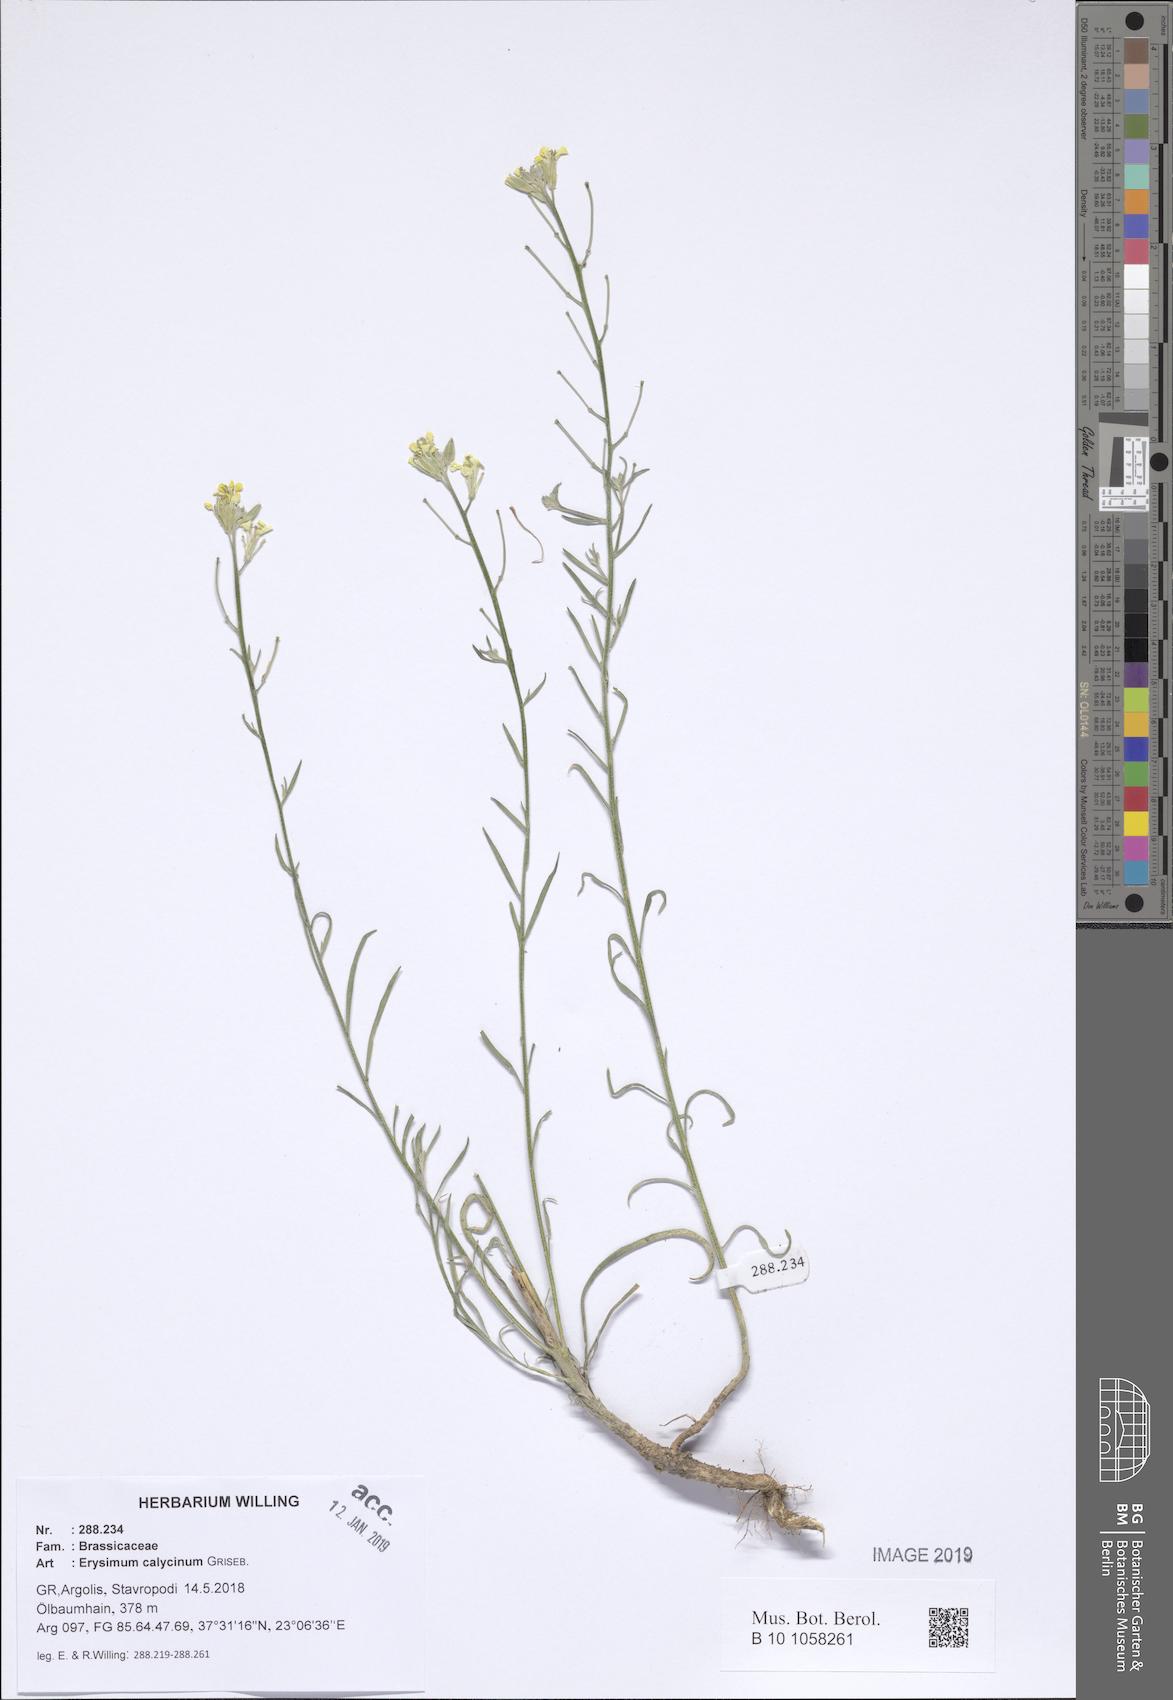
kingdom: Plantae
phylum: Tracheophyta
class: Magnoliopsida
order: Brassicales
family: Brassicaceae
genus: Erysimum
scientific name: Erysimum calycinum
